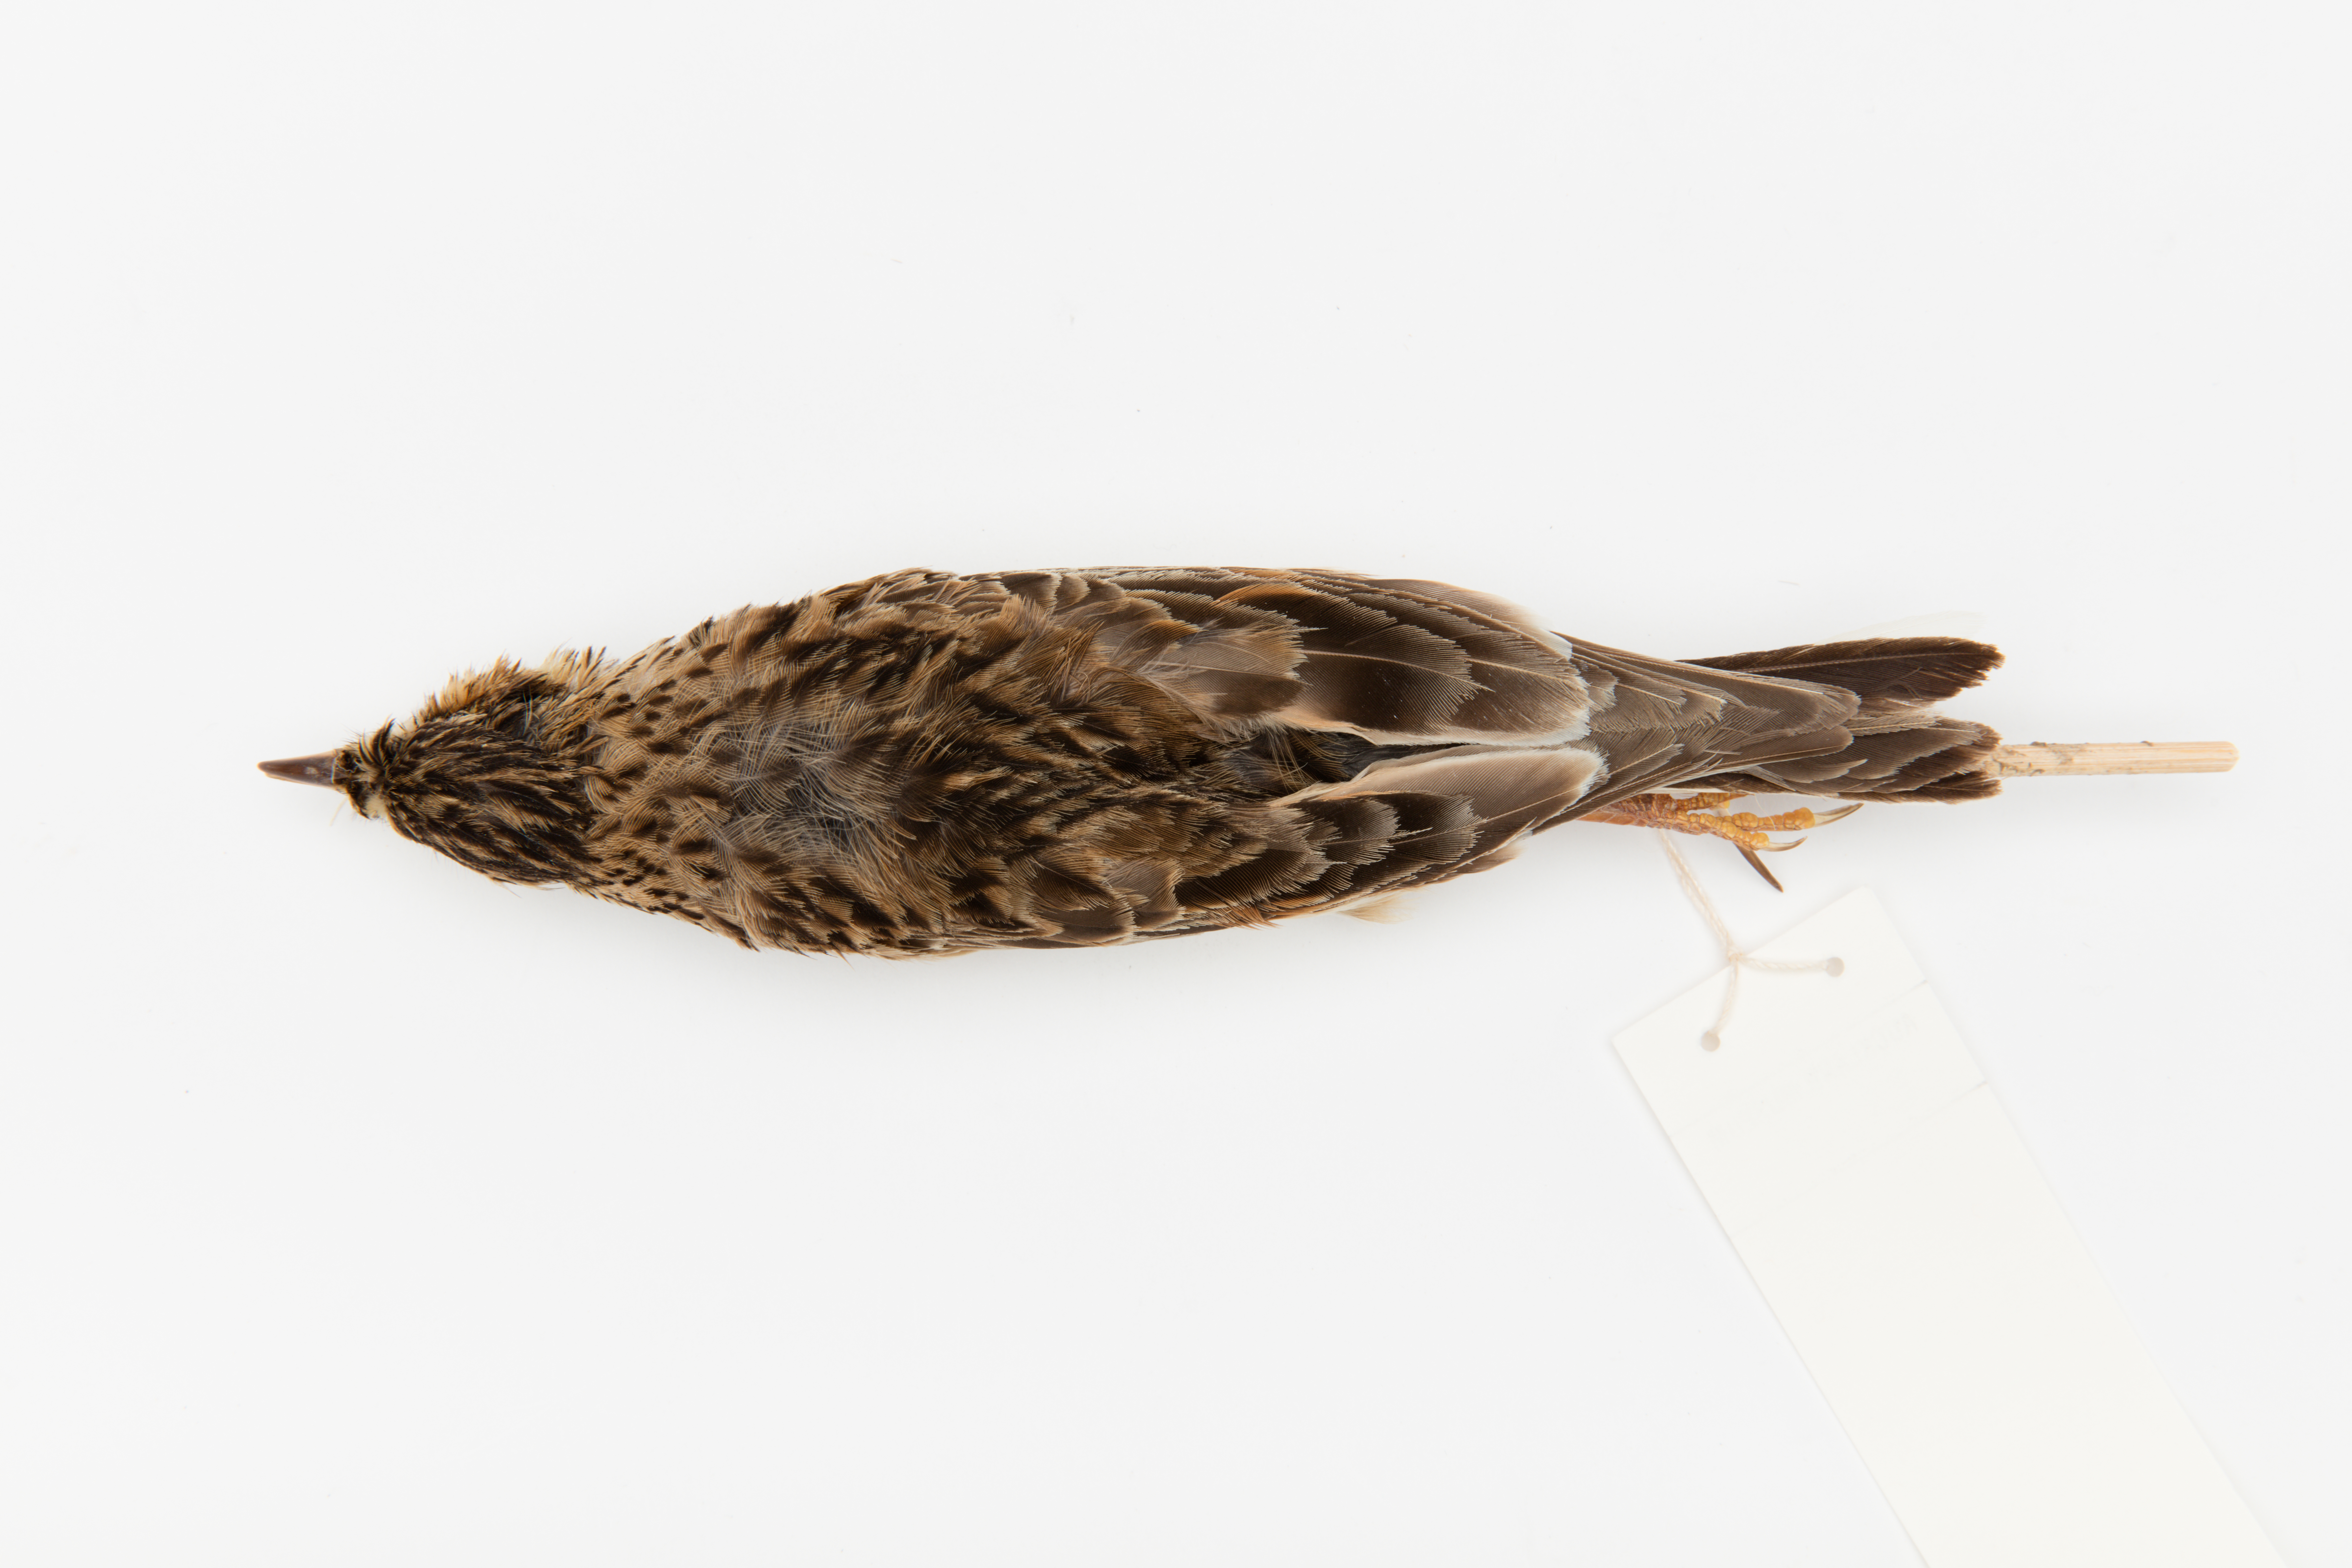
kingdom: Animalia
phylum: Chordata
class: Aves
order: Passeriformes
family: Alaudidae
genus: Alauda
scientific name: Alauda arvensis
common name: Eurasian skylark
